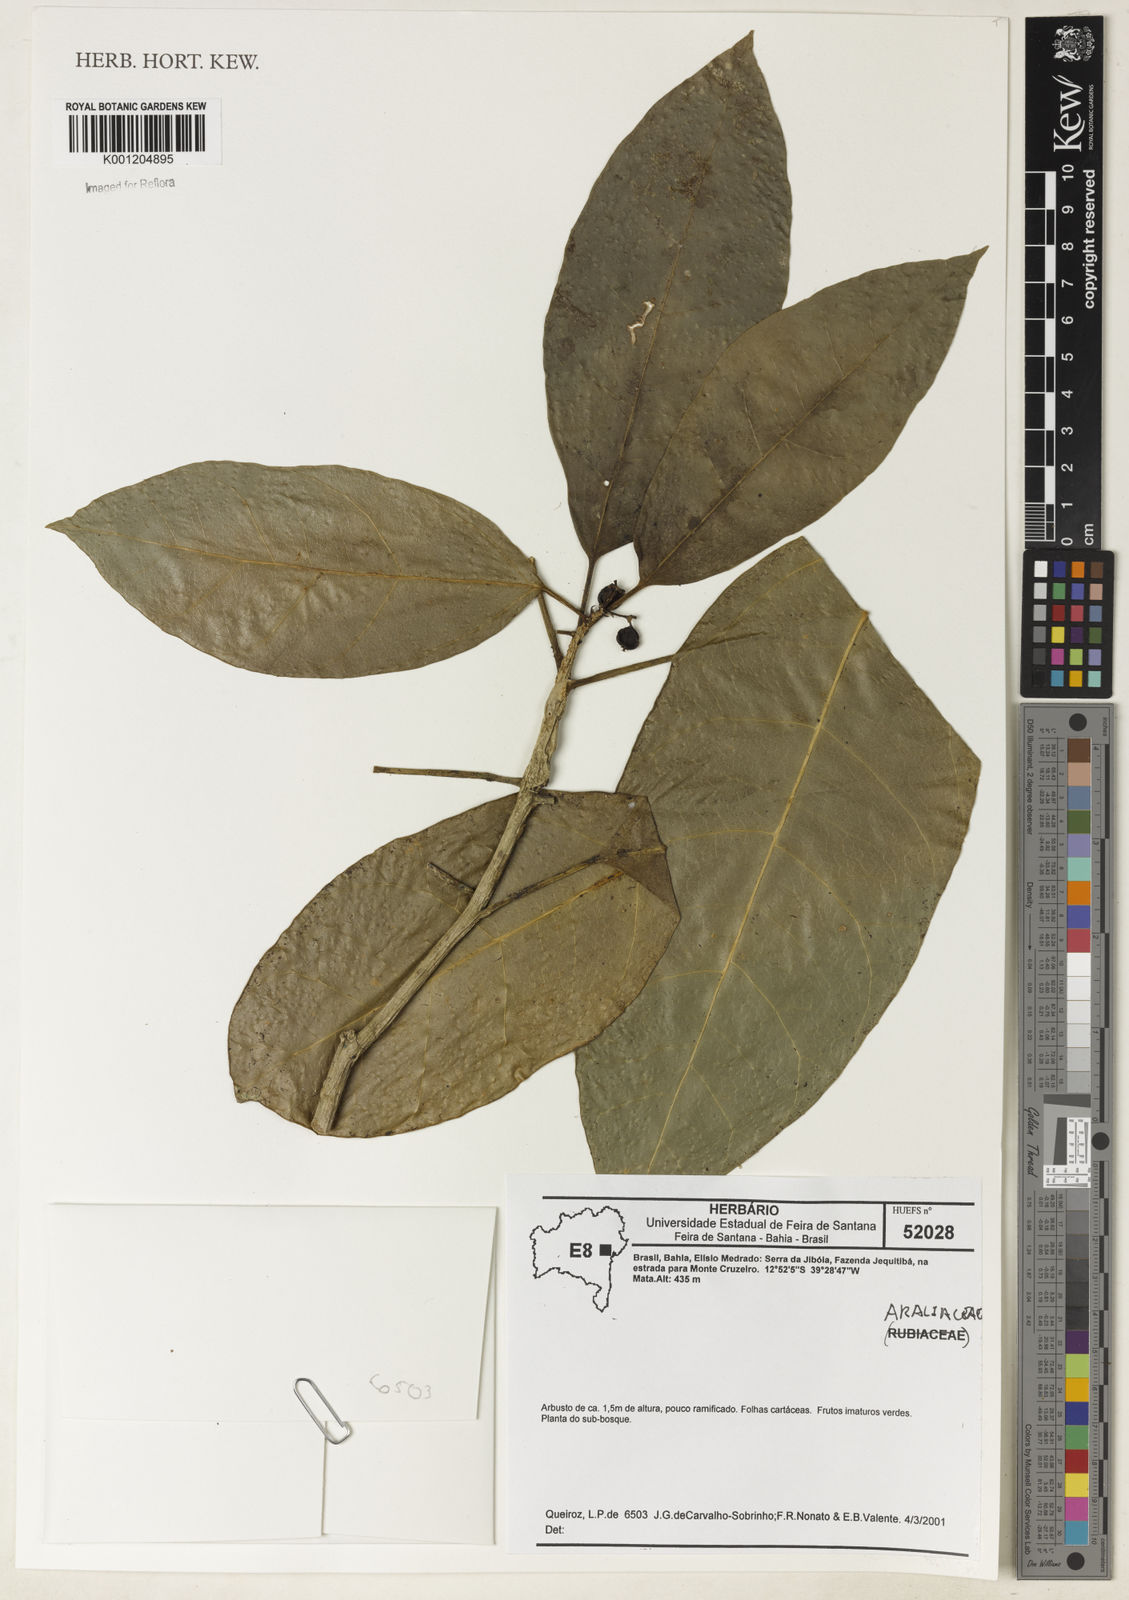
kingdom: Plantae
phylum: Tracheophyta
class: Magnoliopsida
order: Gentianales
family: Rubiaceae
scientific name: Rubiaceae
